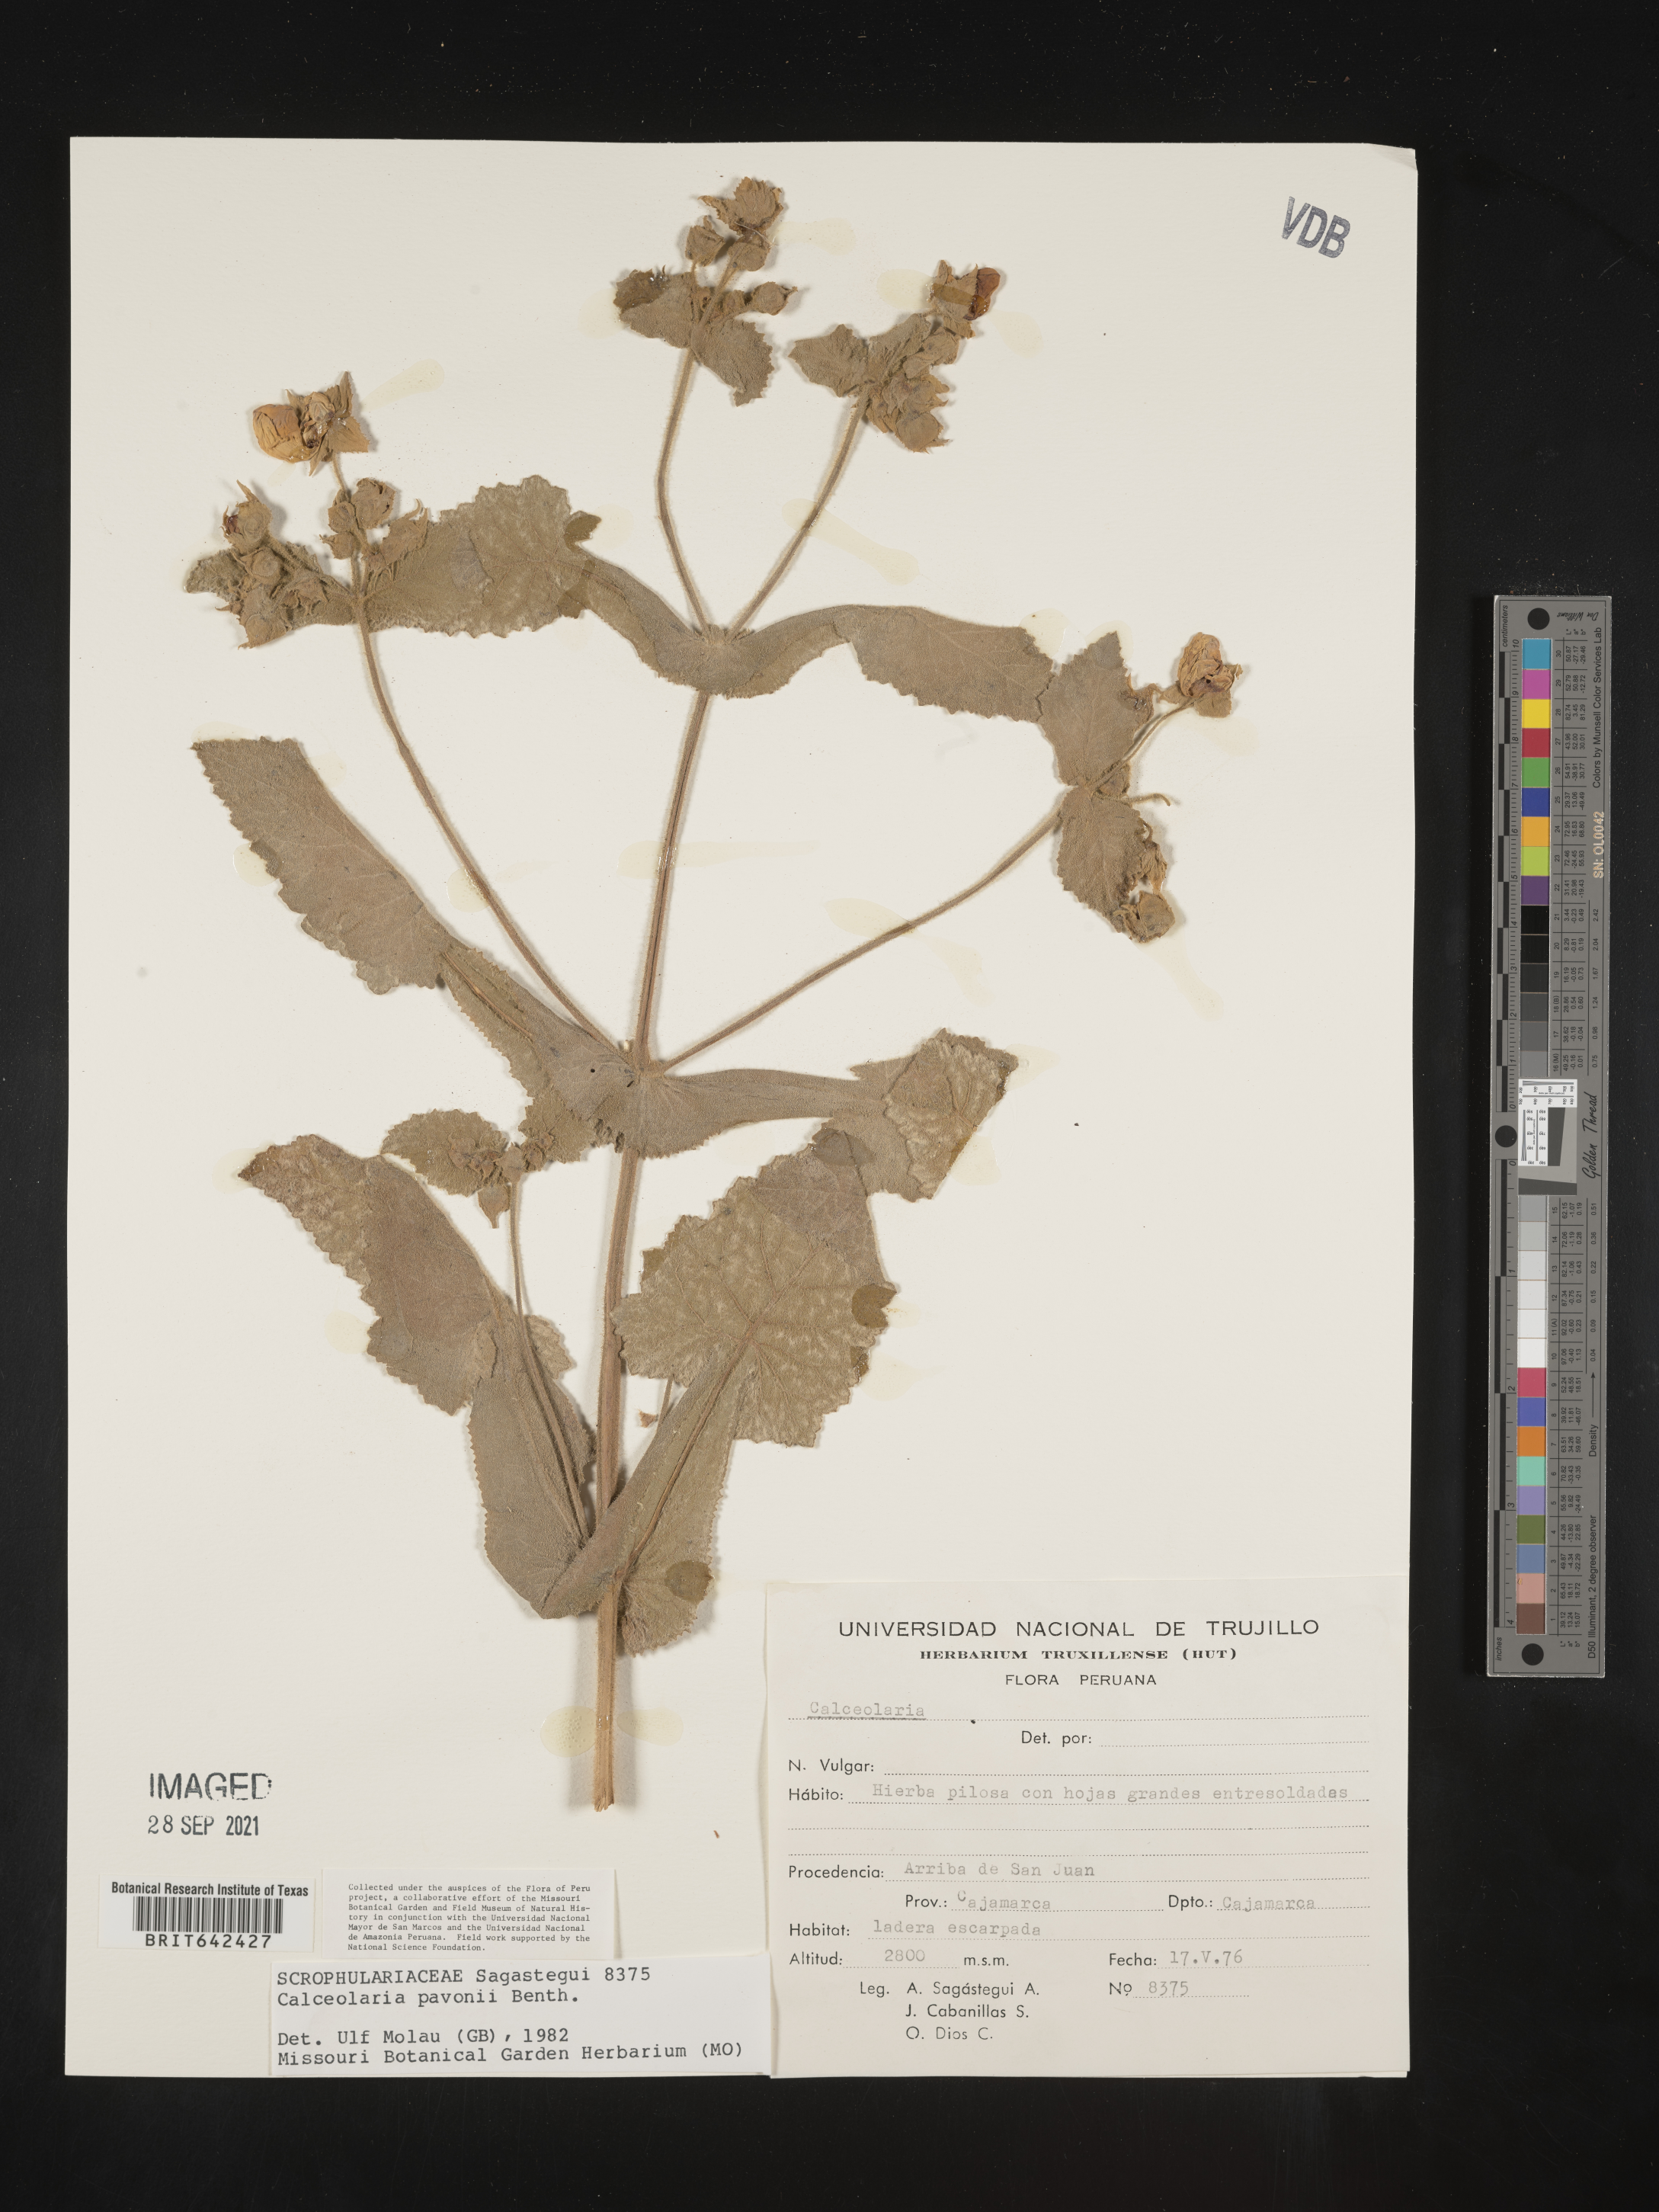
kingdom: Plantae
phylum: Tracheophyta
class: Magnoliopsida
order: Lamiales
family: Calceolariaceae
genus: Calceolaria
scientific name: Calceolaria pavonii
